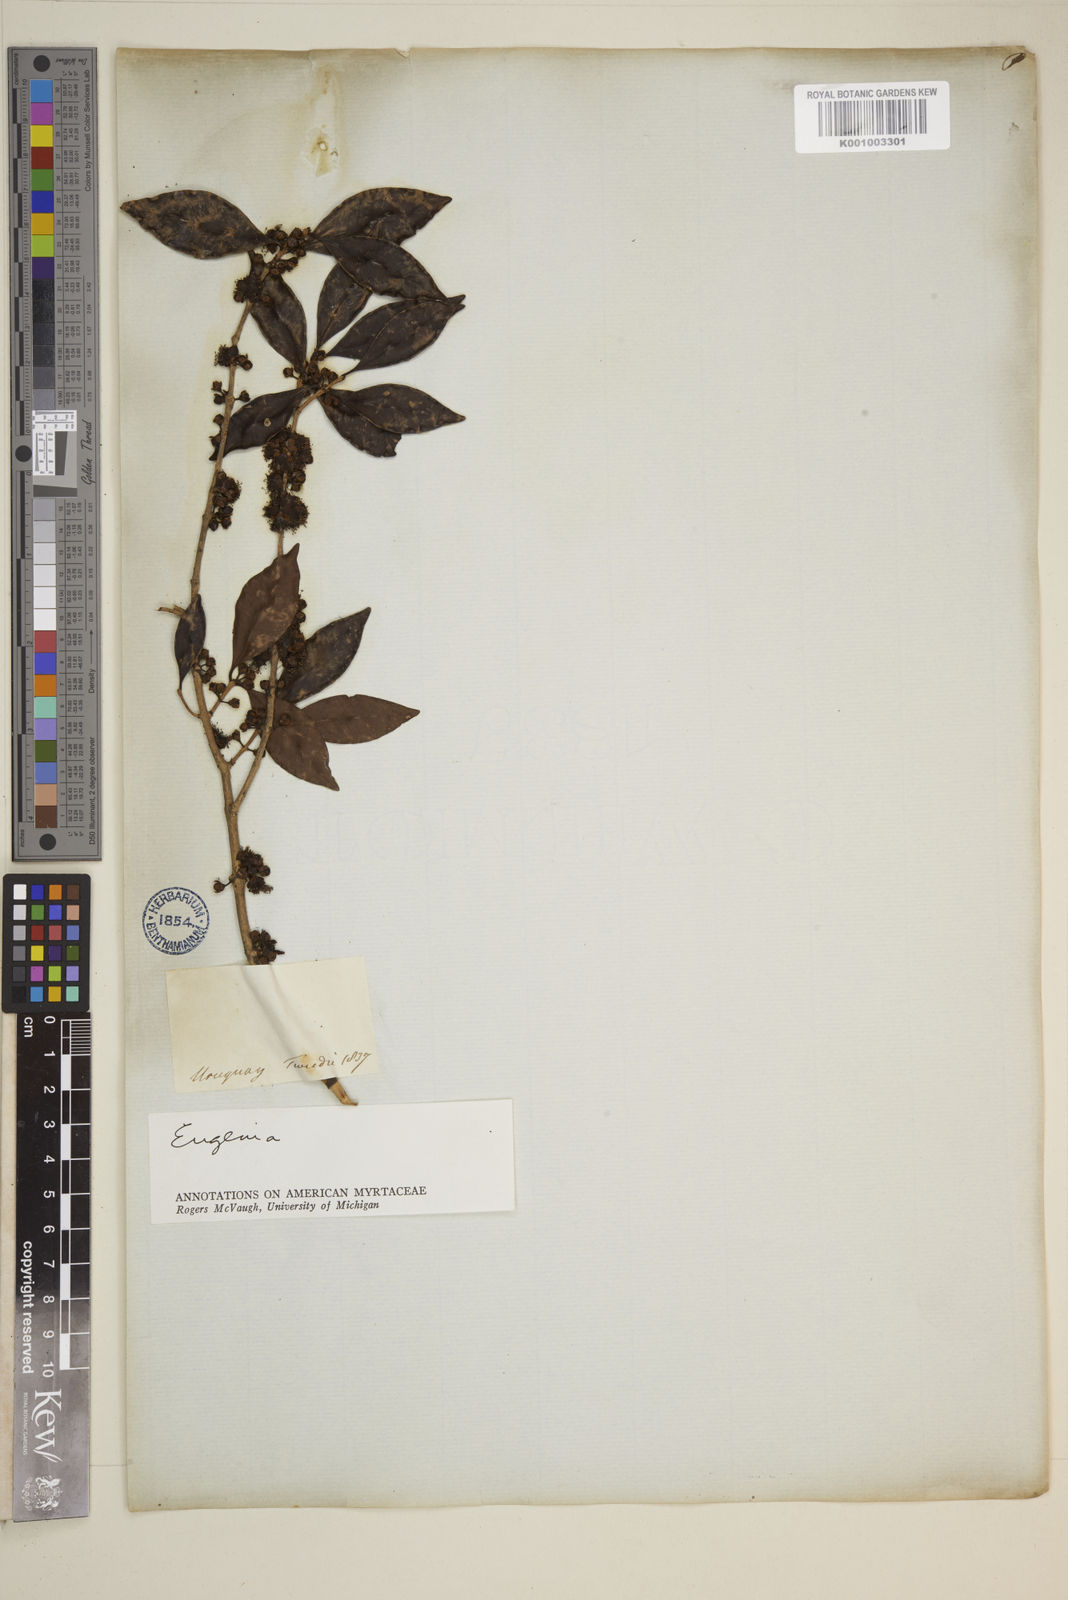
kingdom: Plantae
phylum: Tracheophyta
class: Magnoliopsida
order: Myrtales
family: Myrtaceae
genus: Eugenia
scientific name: Eugenia
